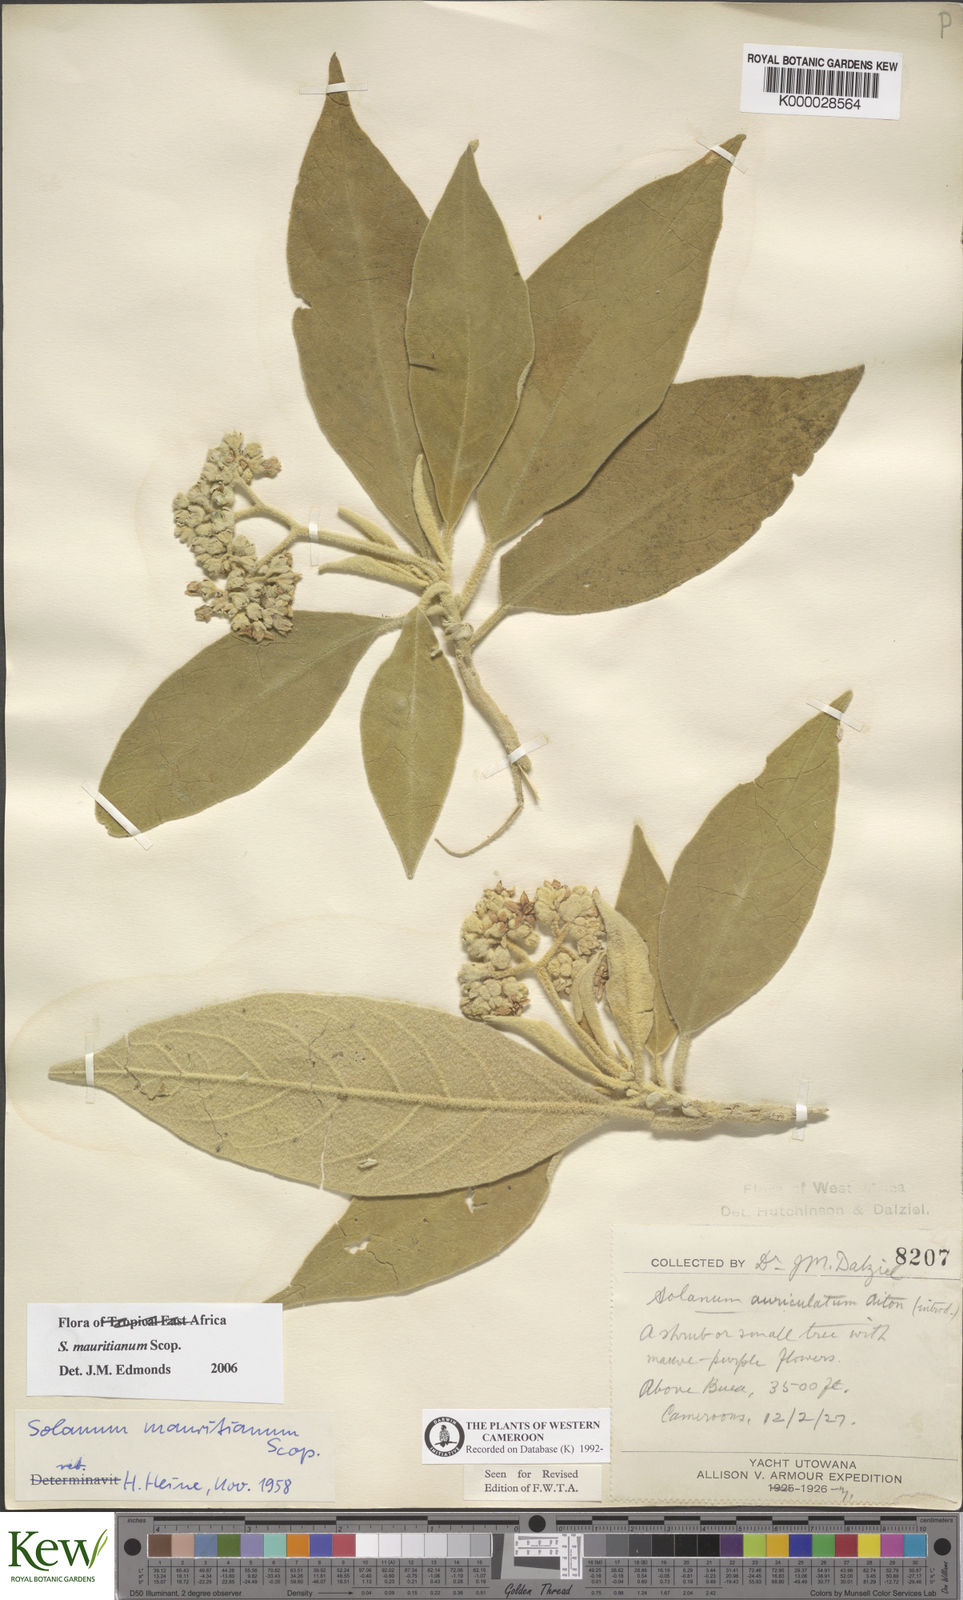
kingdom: Plantae
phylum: Tracheophyta
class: Magnoliopsida
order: Solanales
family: Solanaceae
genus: Solanum
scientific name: Solanum mauritianum
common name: Earleaf nightshade
